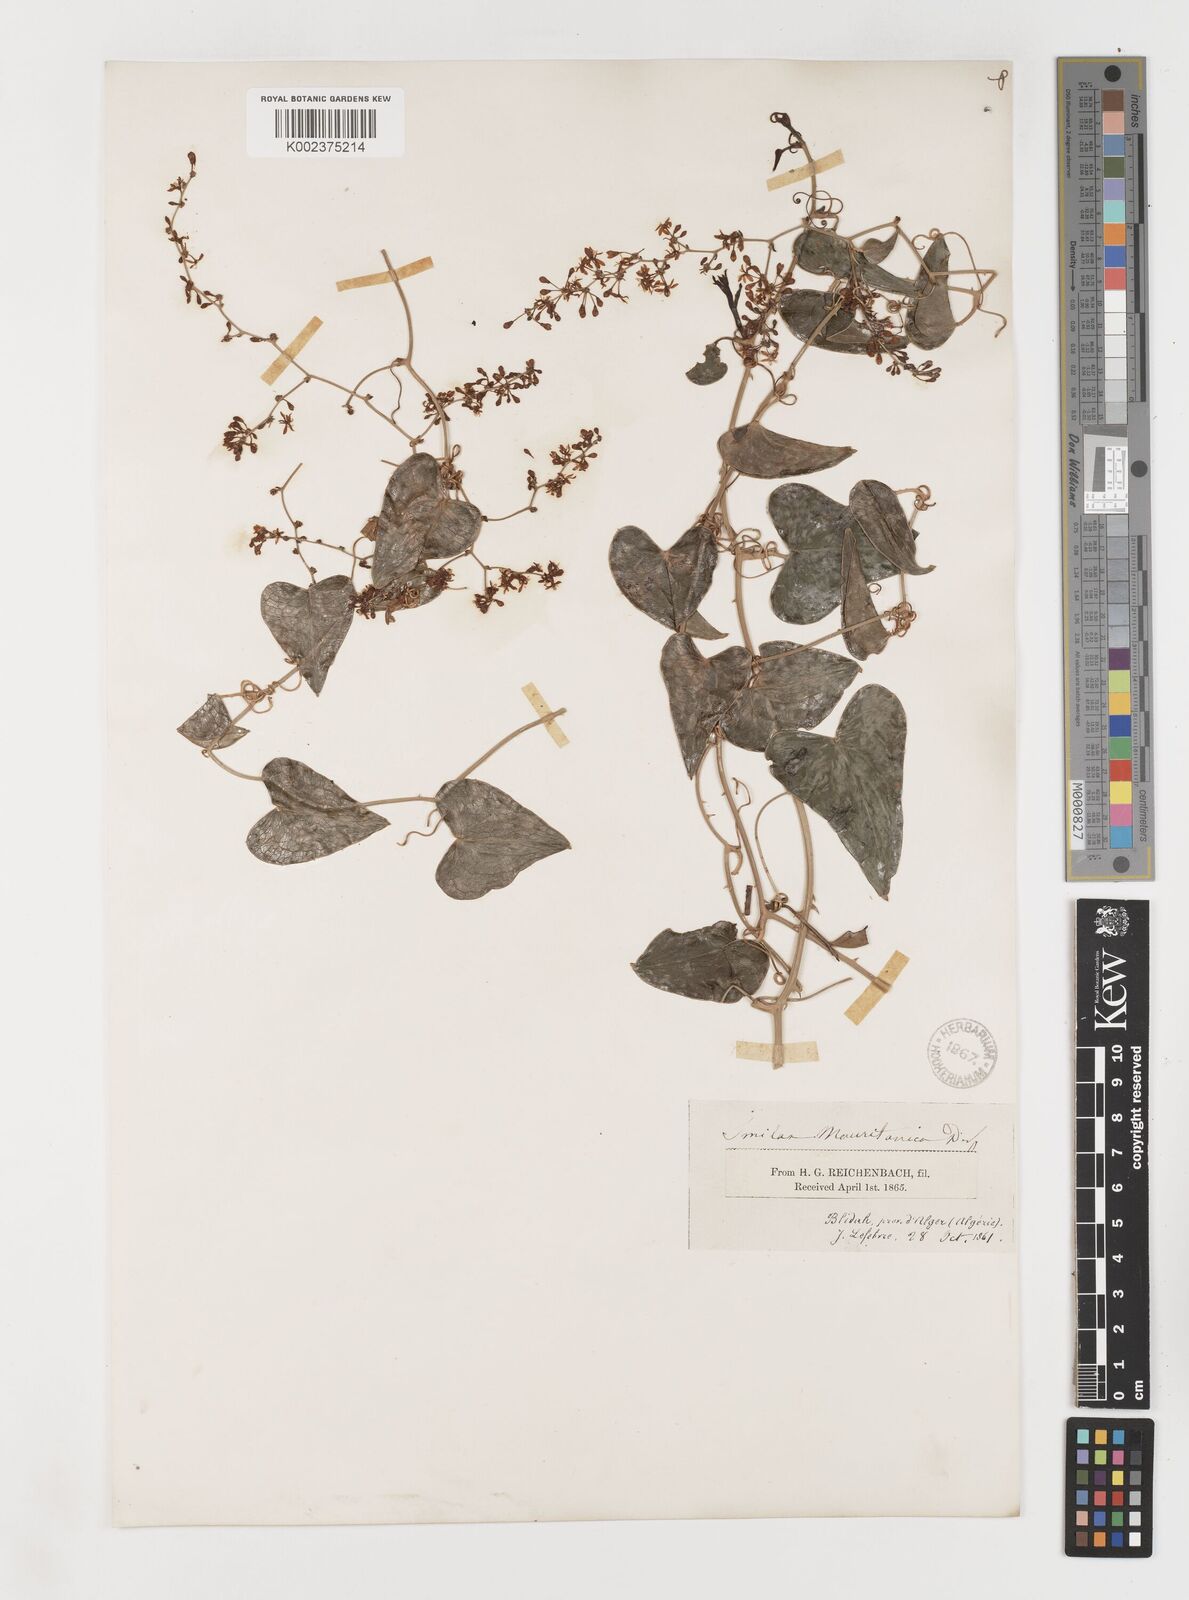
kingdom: Plantae
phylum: Tracheophyta
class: Liliopsida
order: Liliales
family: Smilacaceae
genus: Smilax
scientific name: Smilax aspera
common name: Common smilax
